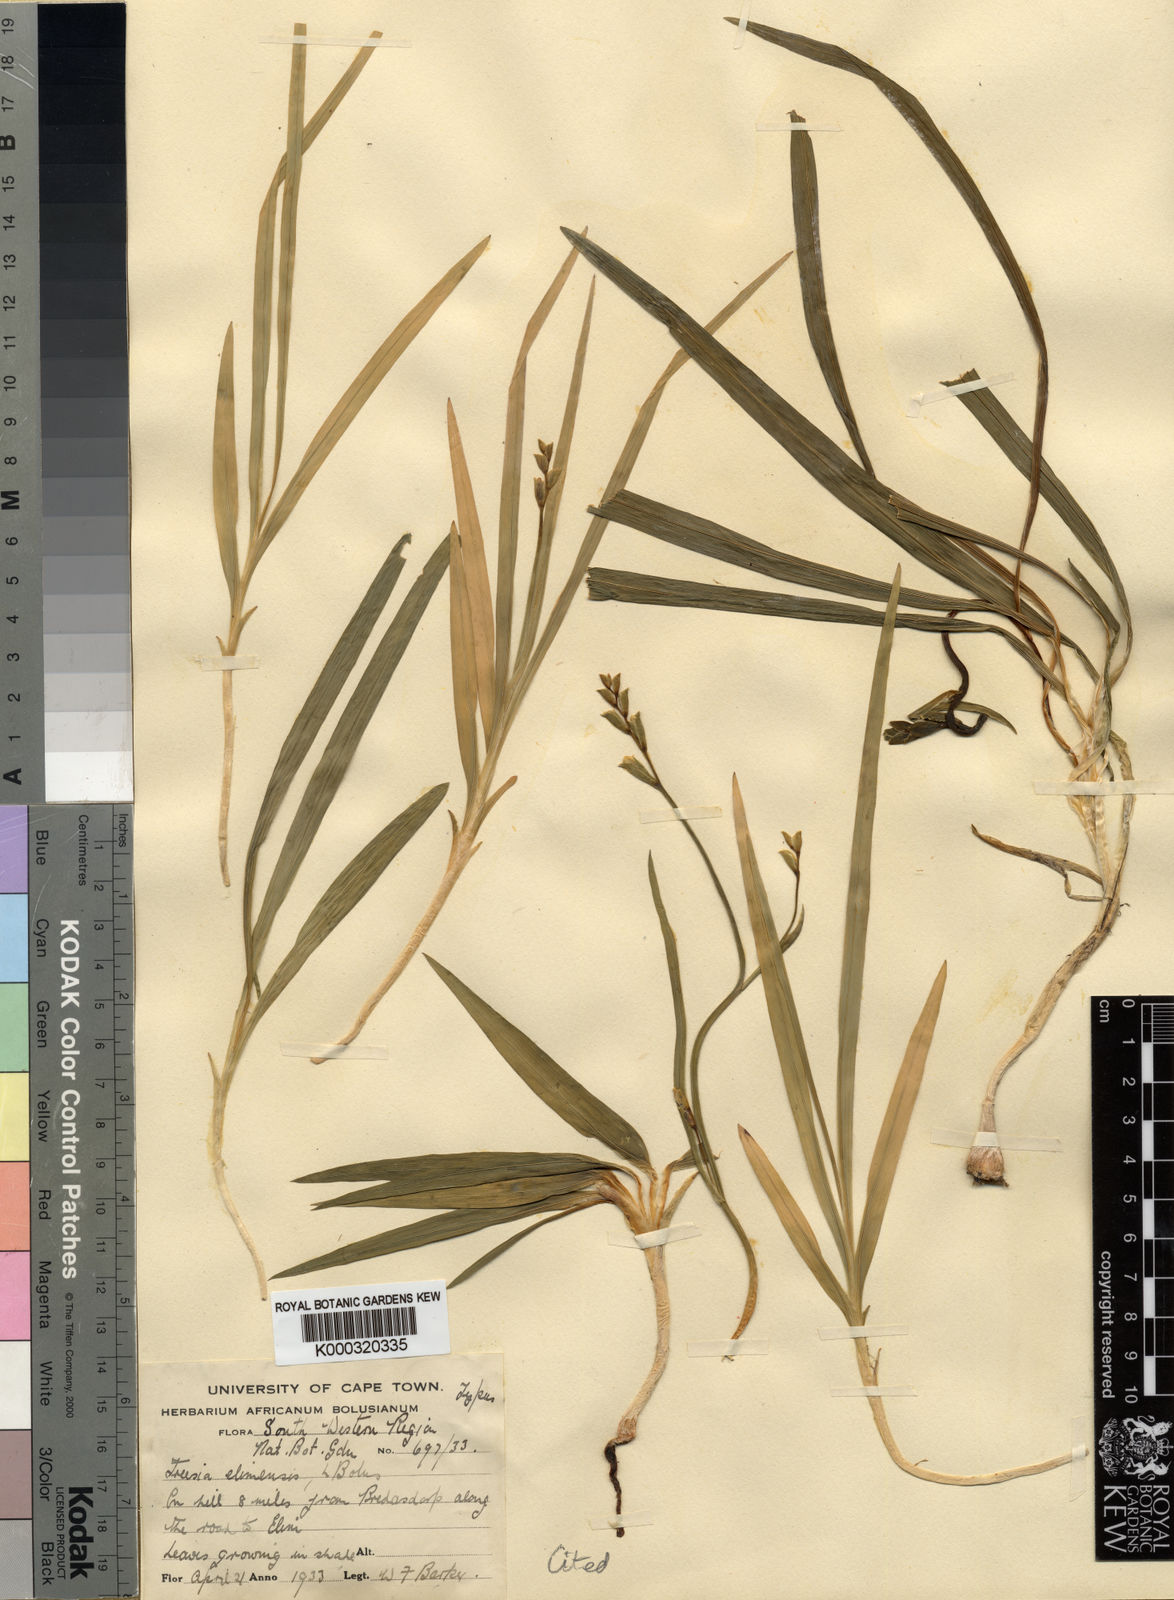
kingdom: Plantae
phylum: Tracheophyta
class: Liliopsida
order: Asparagales
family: Iridaceae
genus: Freesia
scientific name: Freesia caryophyllacea
